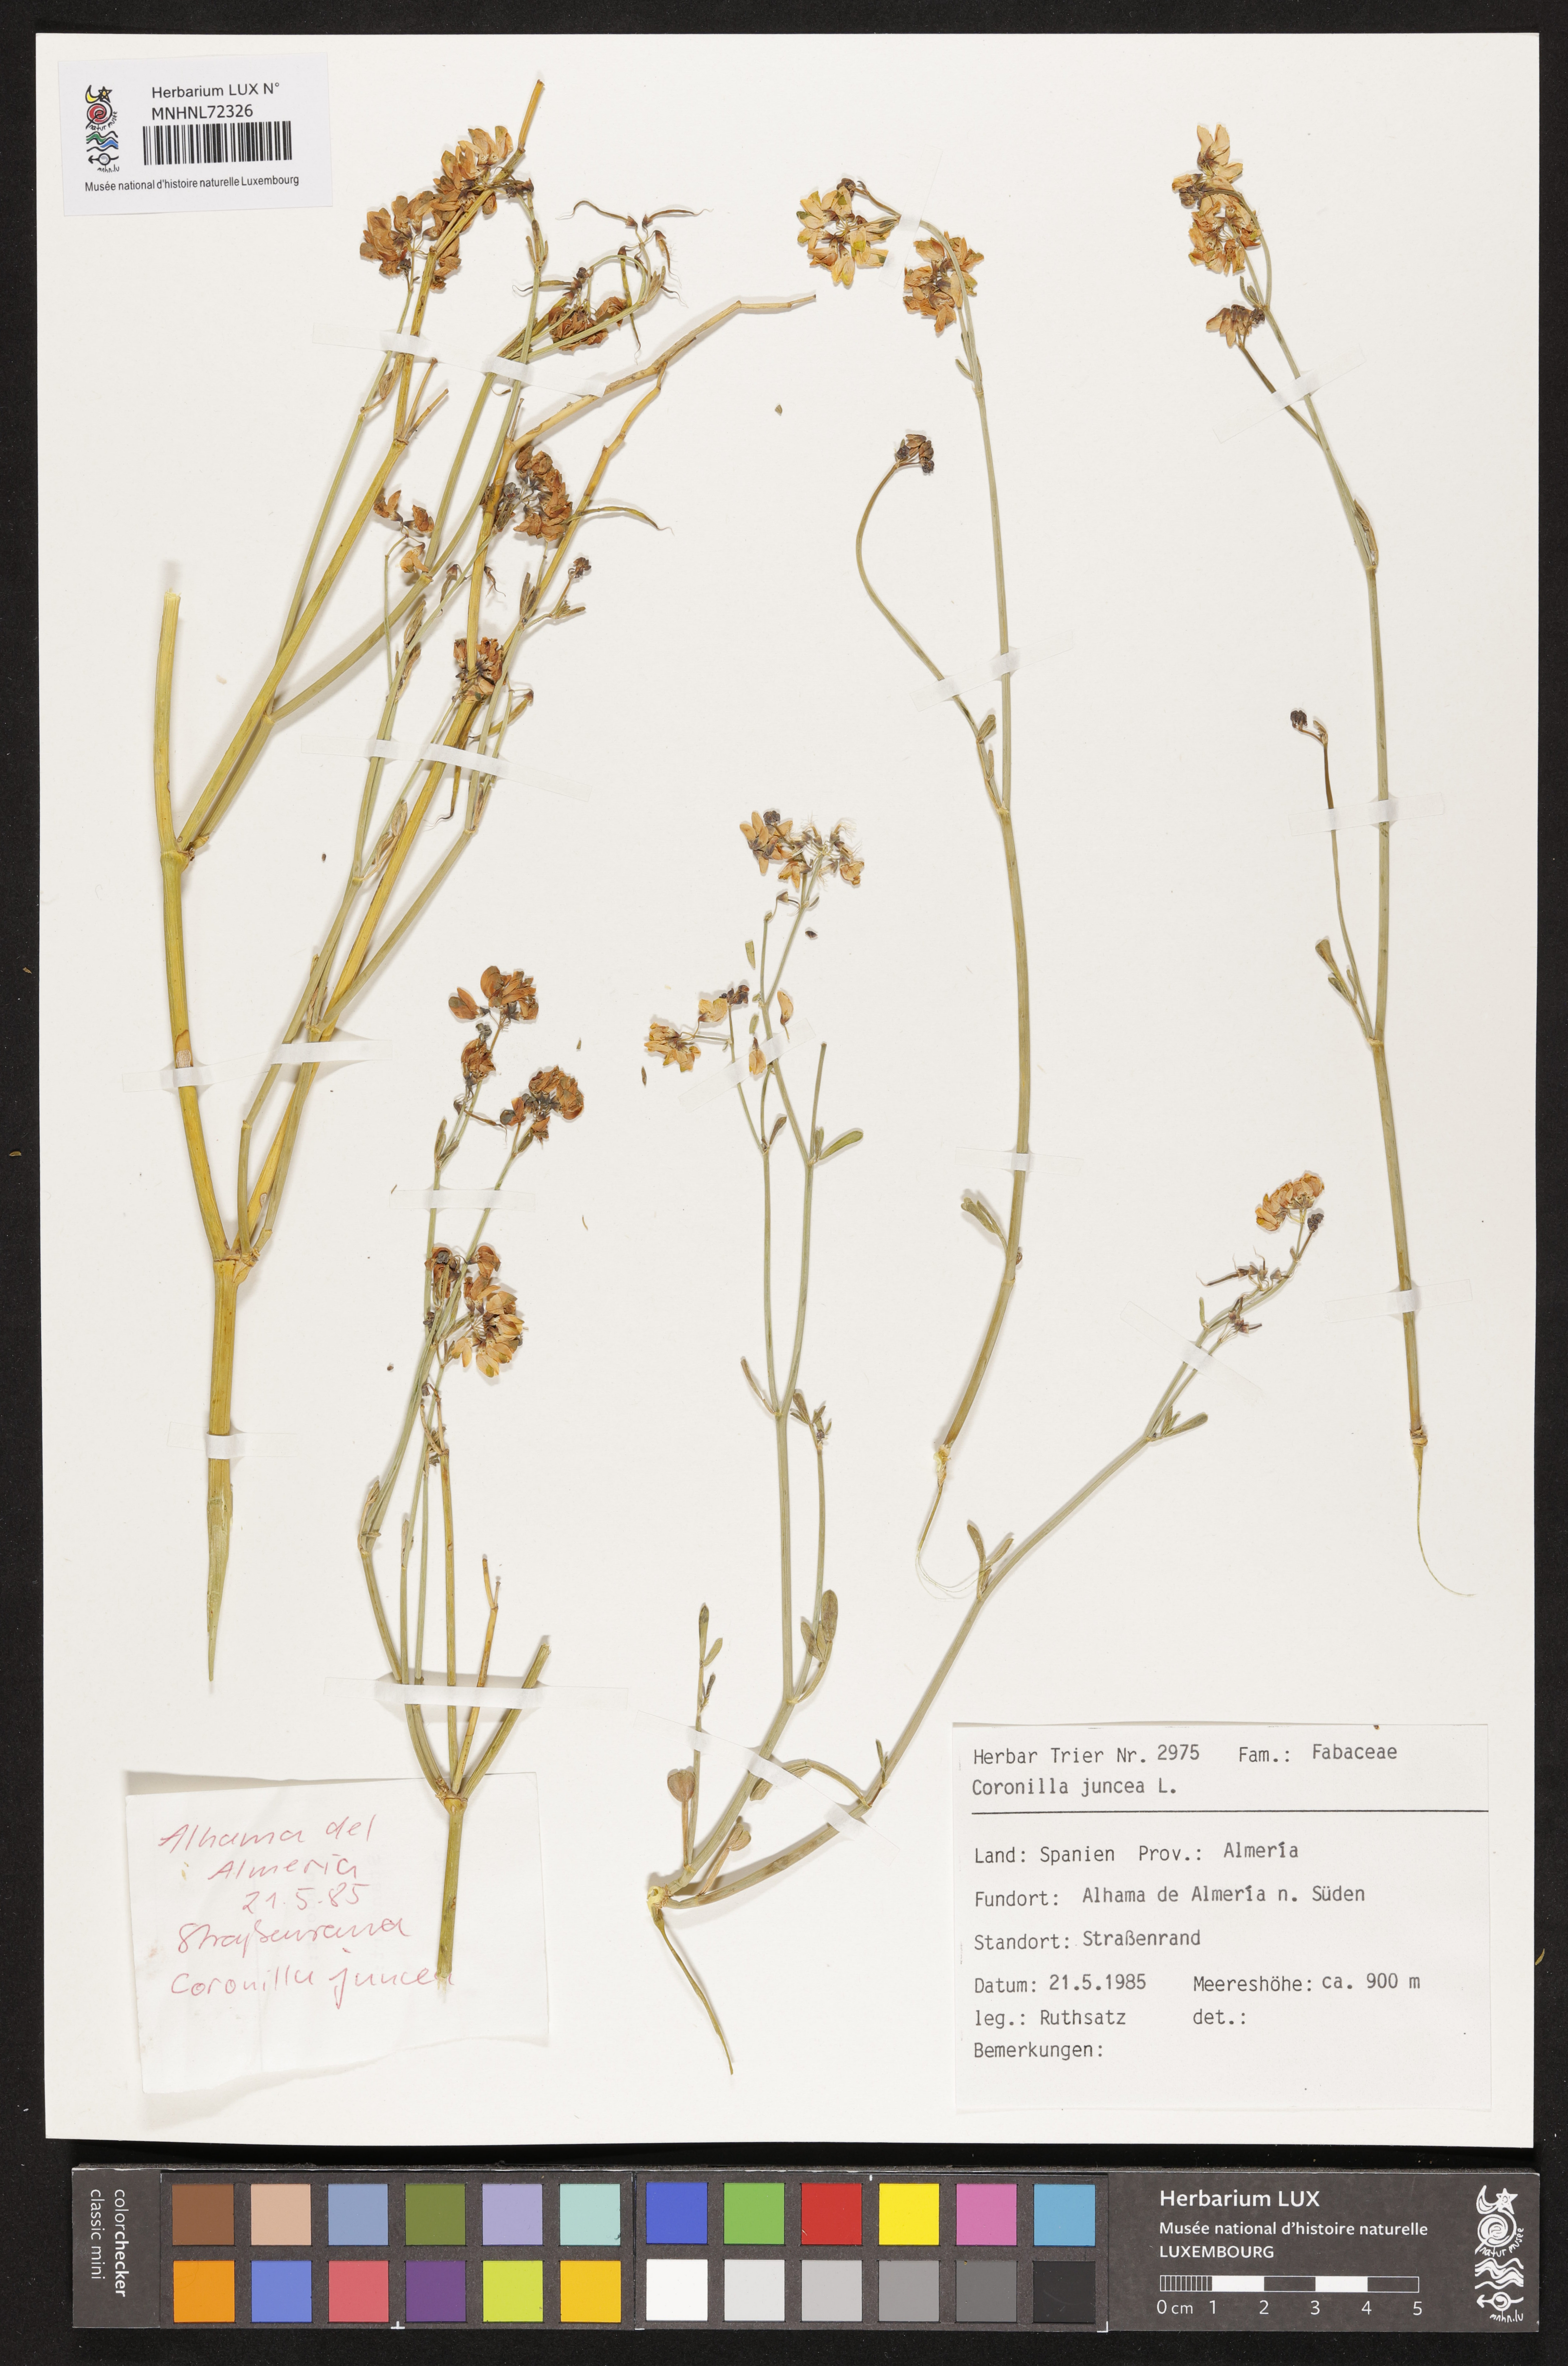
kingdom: Plantae
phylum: Tracheophyta
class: Magnoliopsida
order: Fabales
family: Fabaceae
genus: Coronilla
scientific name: Coronilla juncea
